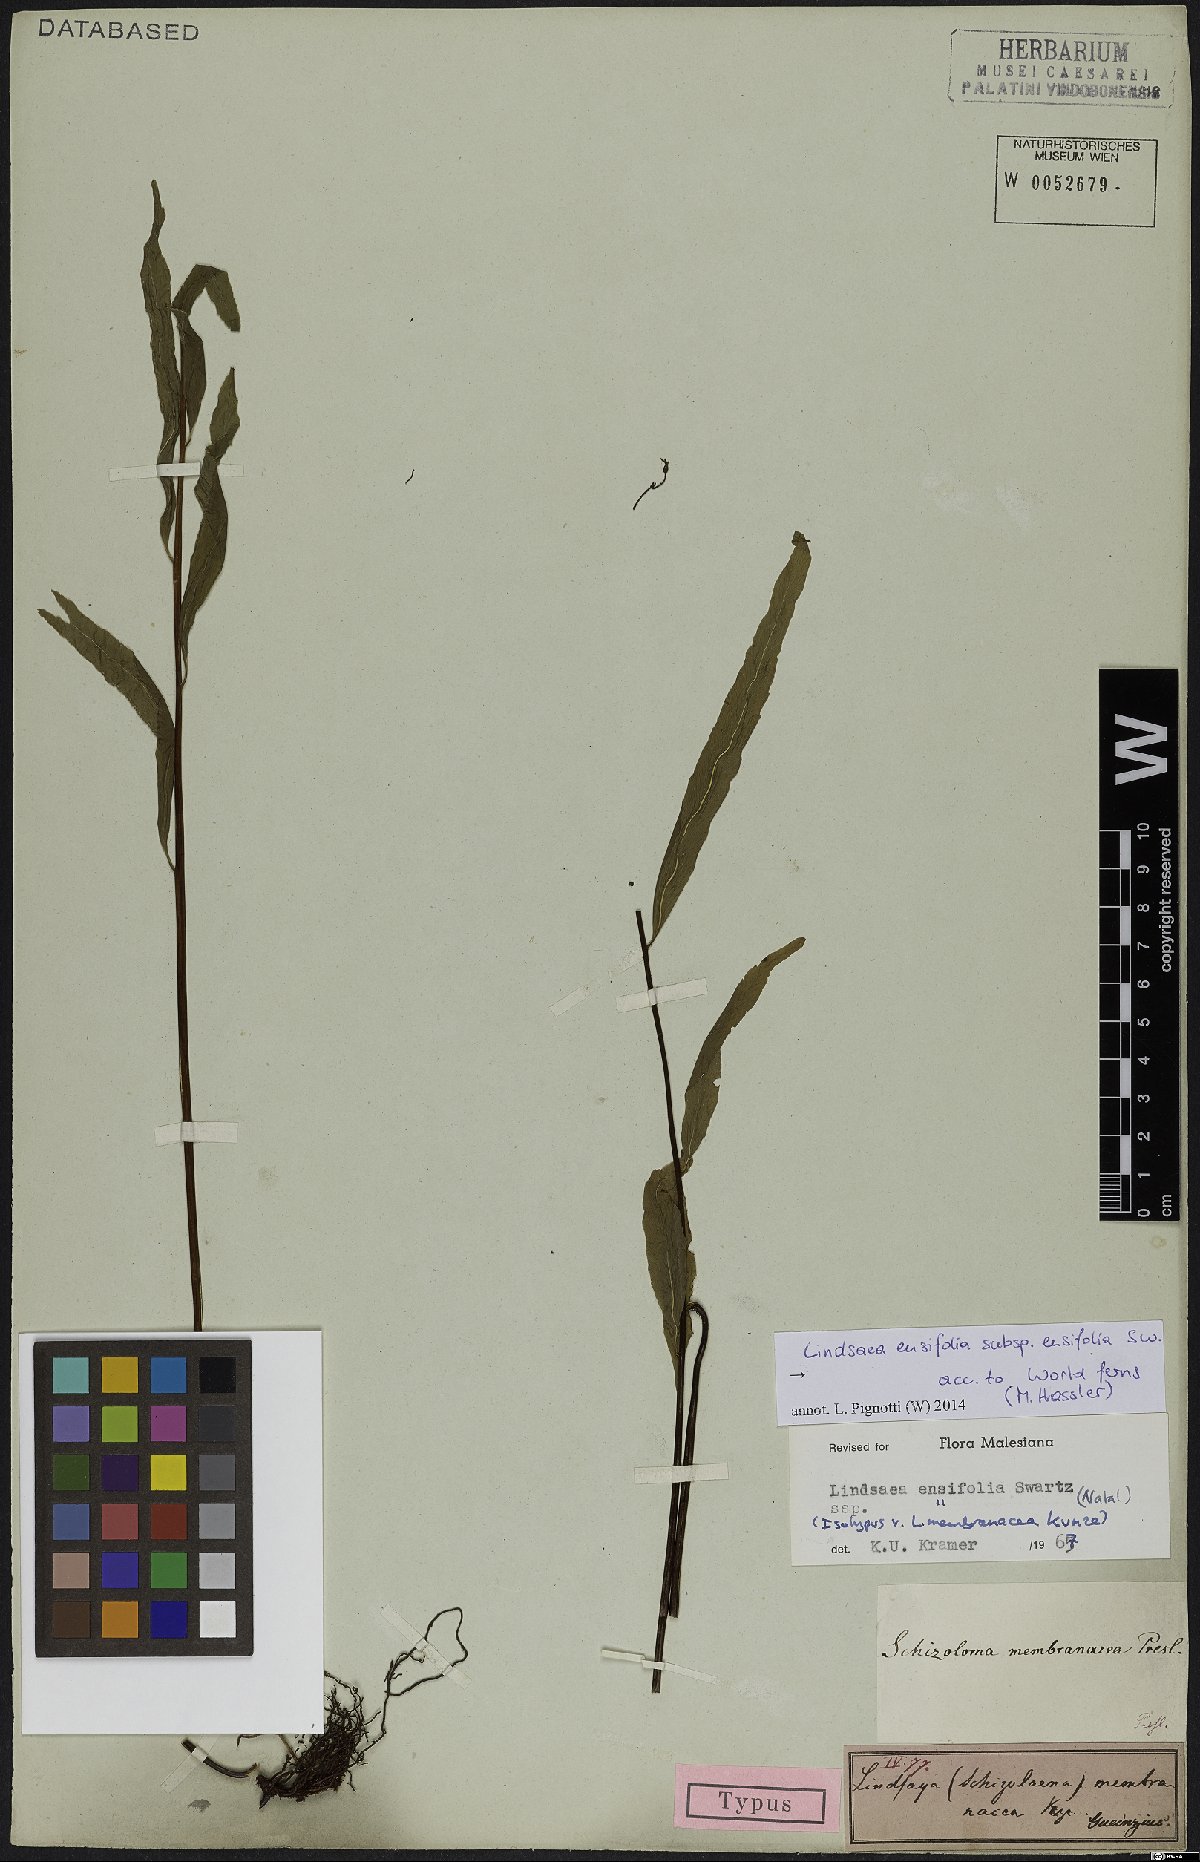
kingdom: Plantae
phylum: Tracheophyta
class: Polypodiopsida
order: Polypodiales
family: Lindsaeaceae
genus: Lindsaea
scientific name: Lindsaea ensifolia
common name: Graceful necklace fern
